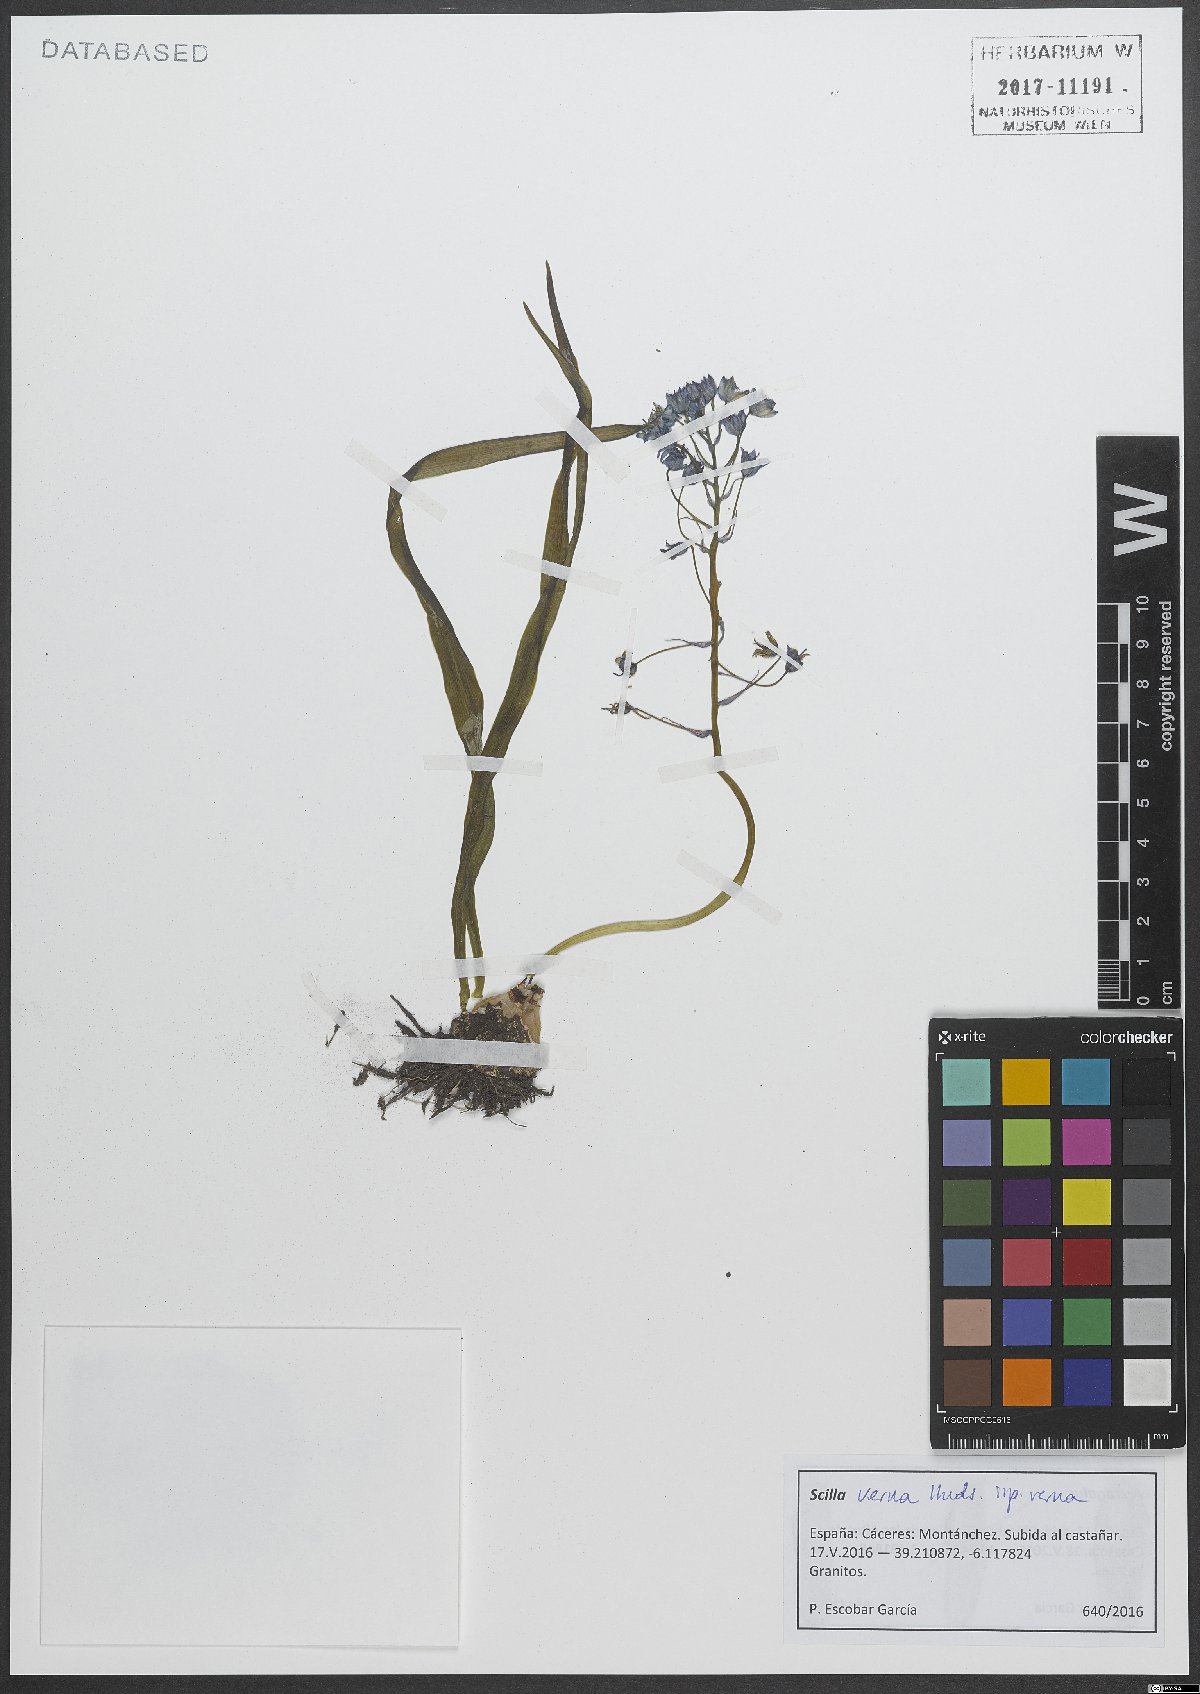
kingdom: Plantae
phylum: Tracheophyta
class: Liliopsida
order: Asparagales
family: Asparagaceae
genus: Scilla
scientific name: Scilla verna
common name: Spring squill
